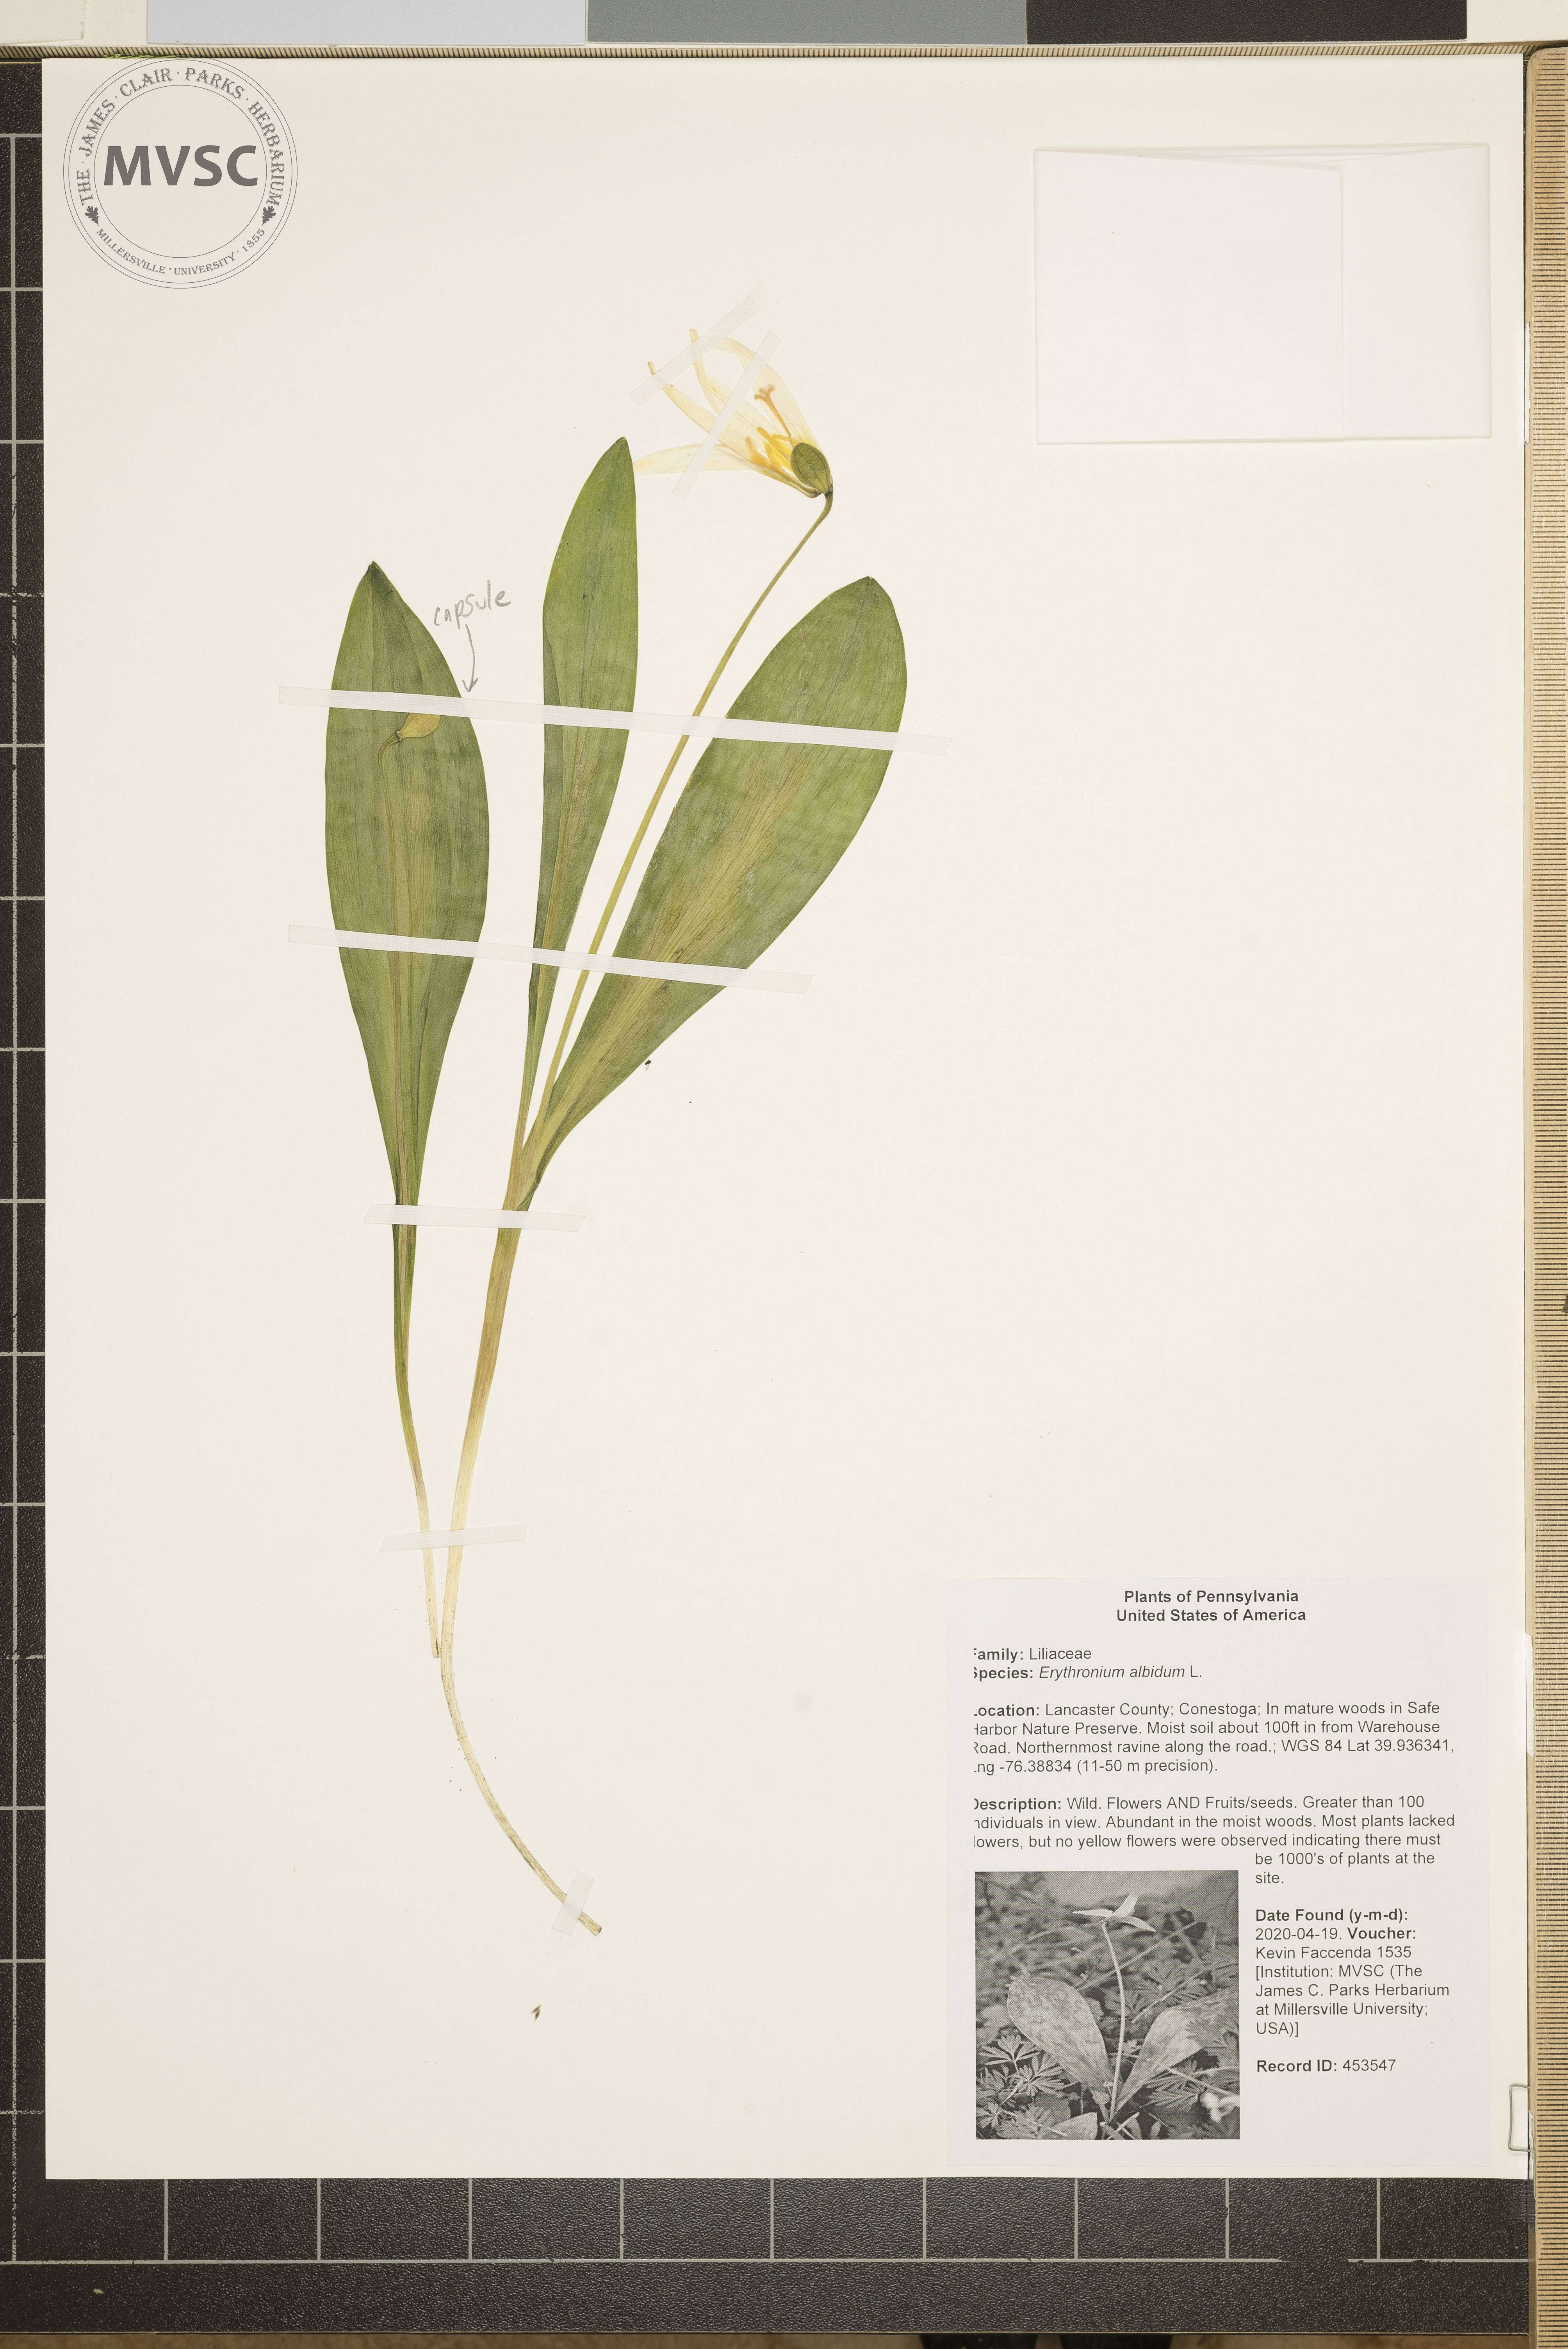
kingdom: Plantae
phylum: Tracheophyta
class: Liliopsida
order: Liliales
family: Liliaceae
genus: Erythronium
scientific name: Erythronium albidum
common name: White trout-lily
